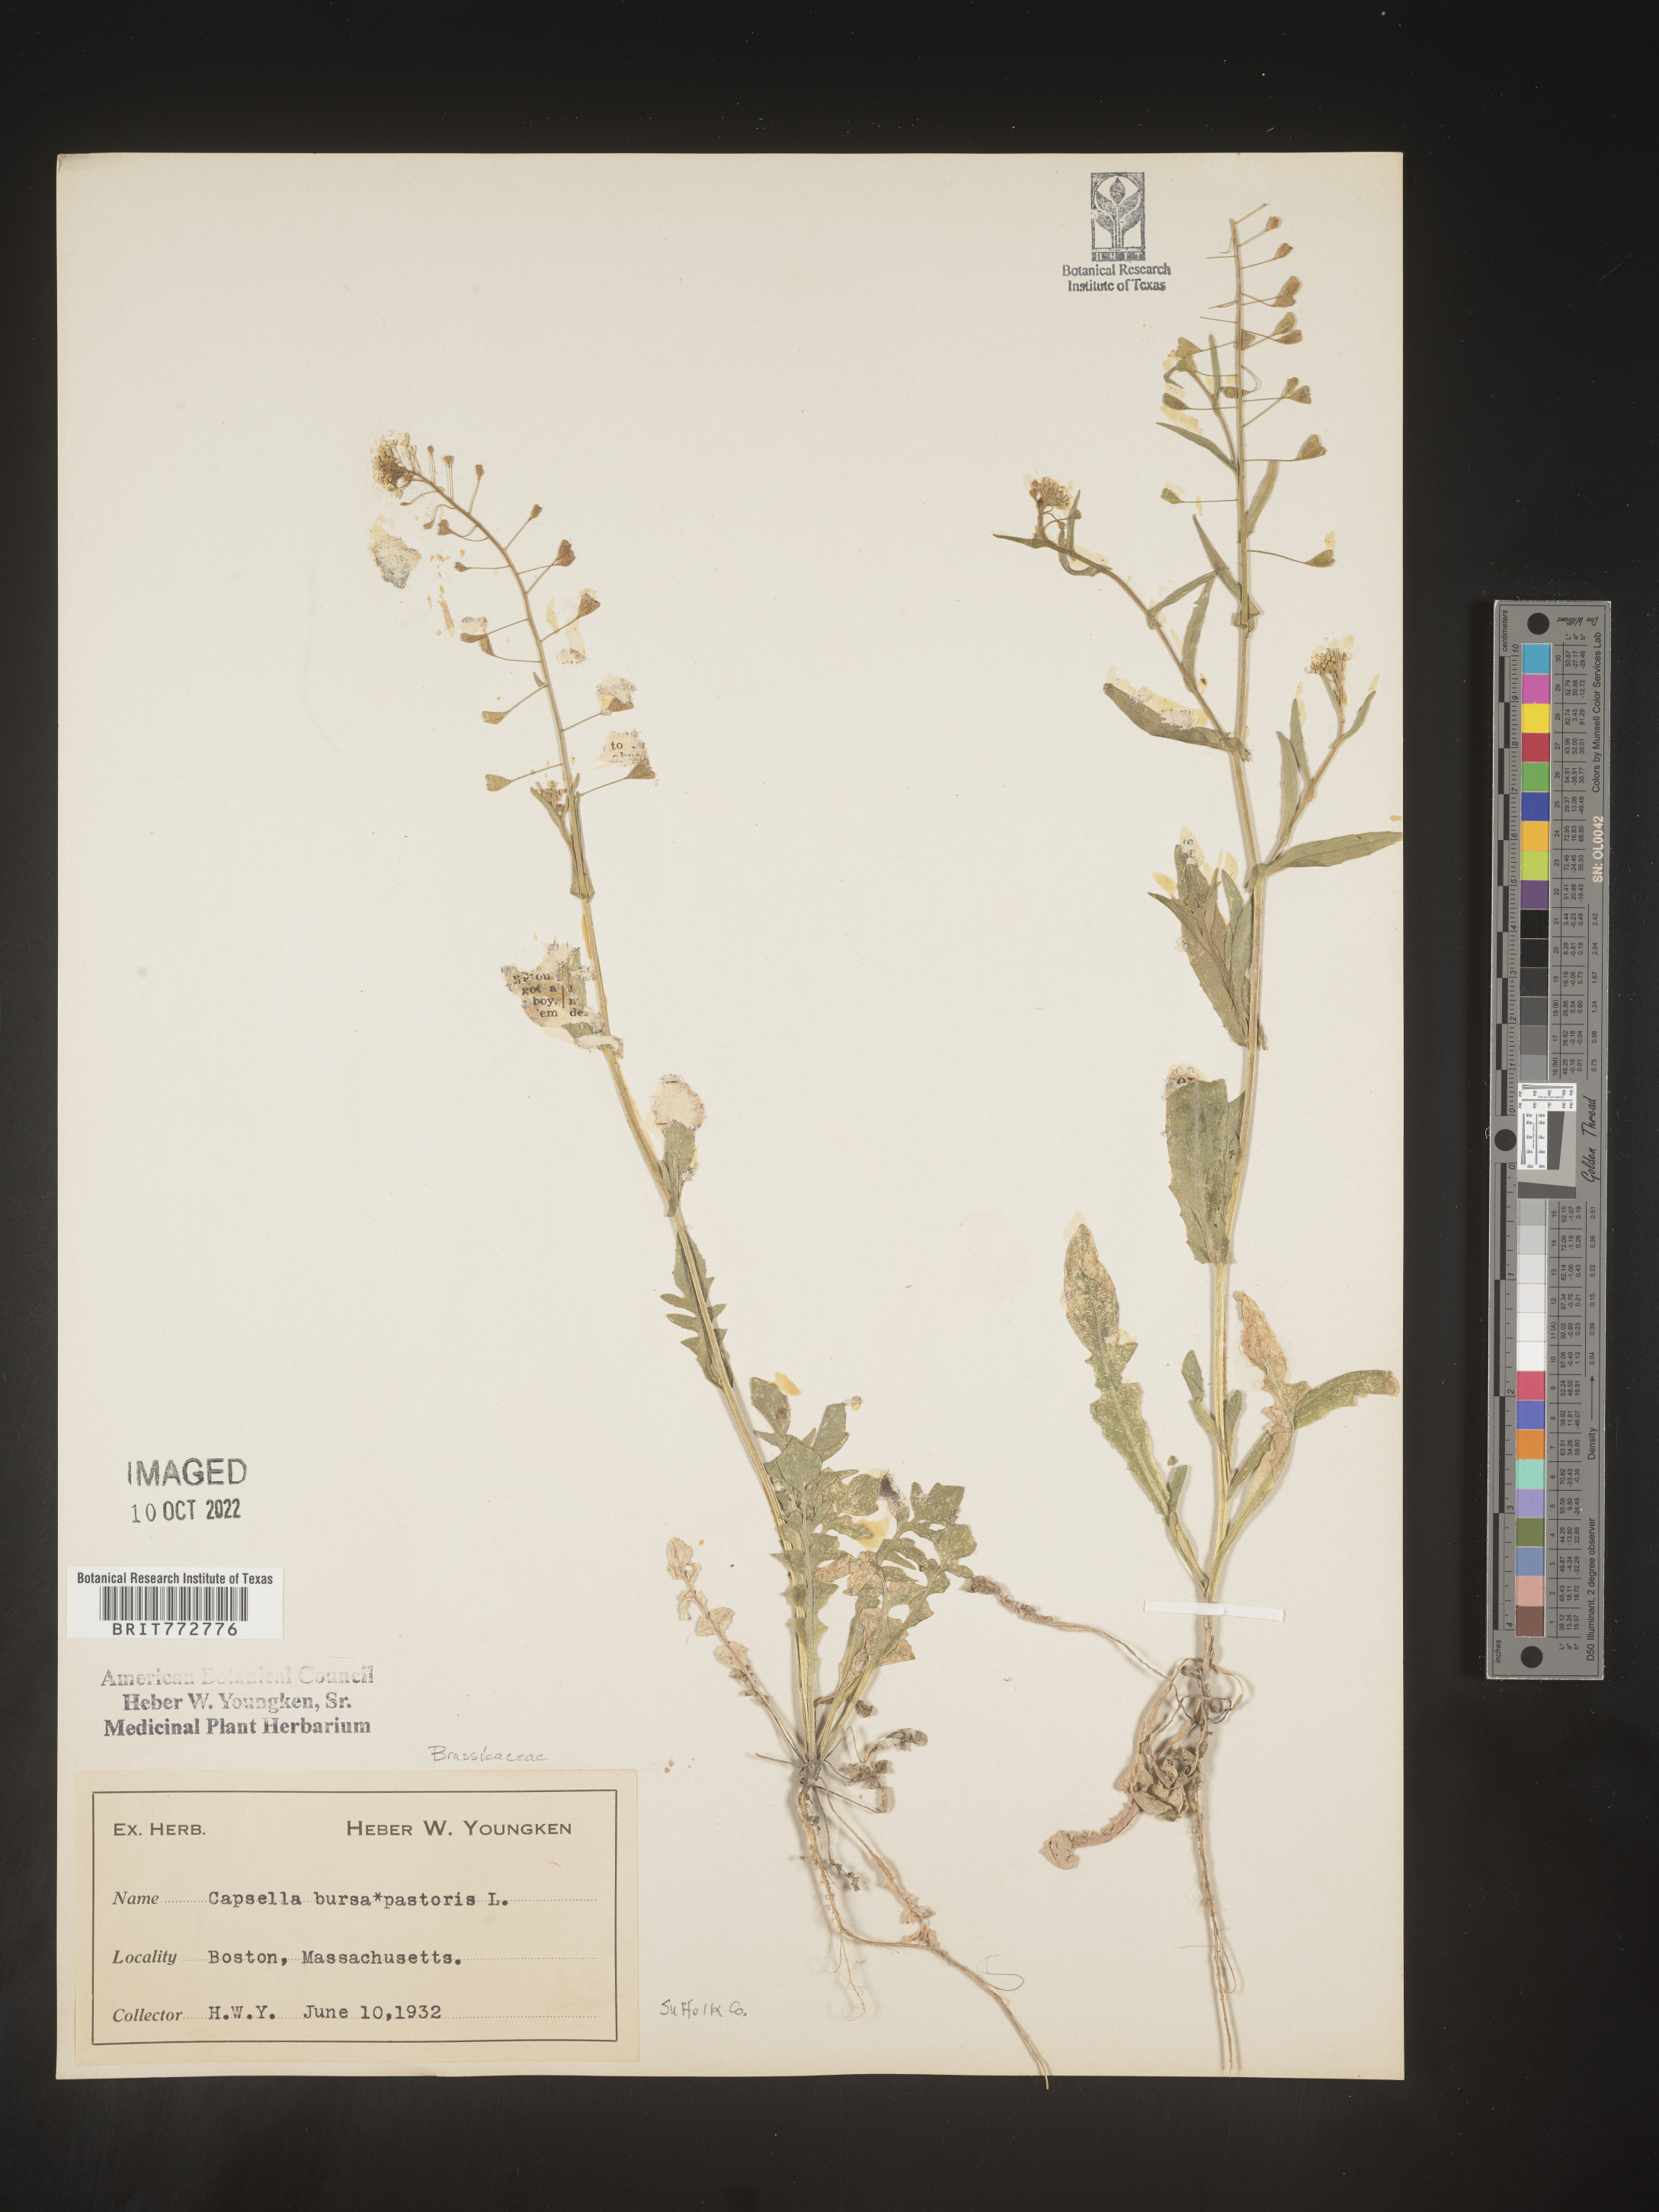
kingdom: Plantae
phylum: Tracheophyta
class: Magnoliopsida
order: Brassicales
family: Brassicaceae
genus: Capsella
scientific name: Capsella bursa-pastoris
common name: Shepherd's purse
